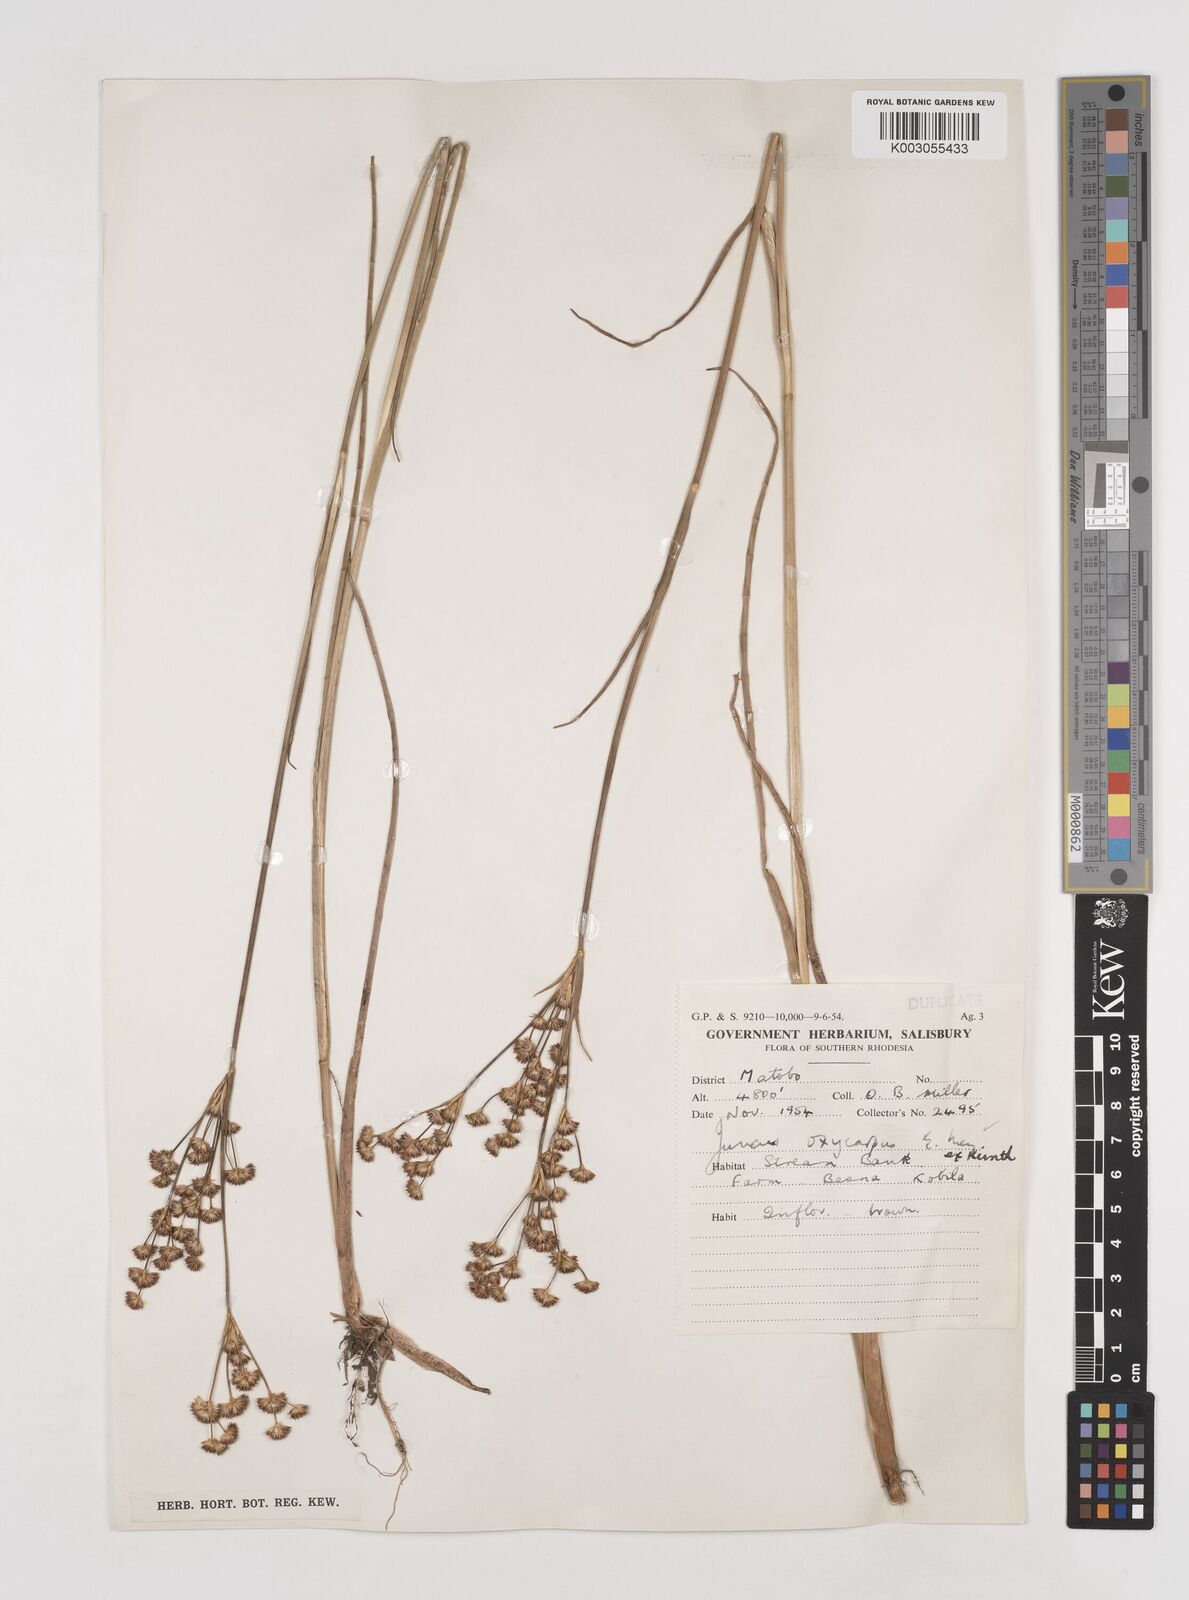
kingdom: Plantae
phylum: Tracheophyta
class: Liliopsida
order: Poales
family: Juncaceae
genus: Juncus
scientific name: Juncus oxycarpus
